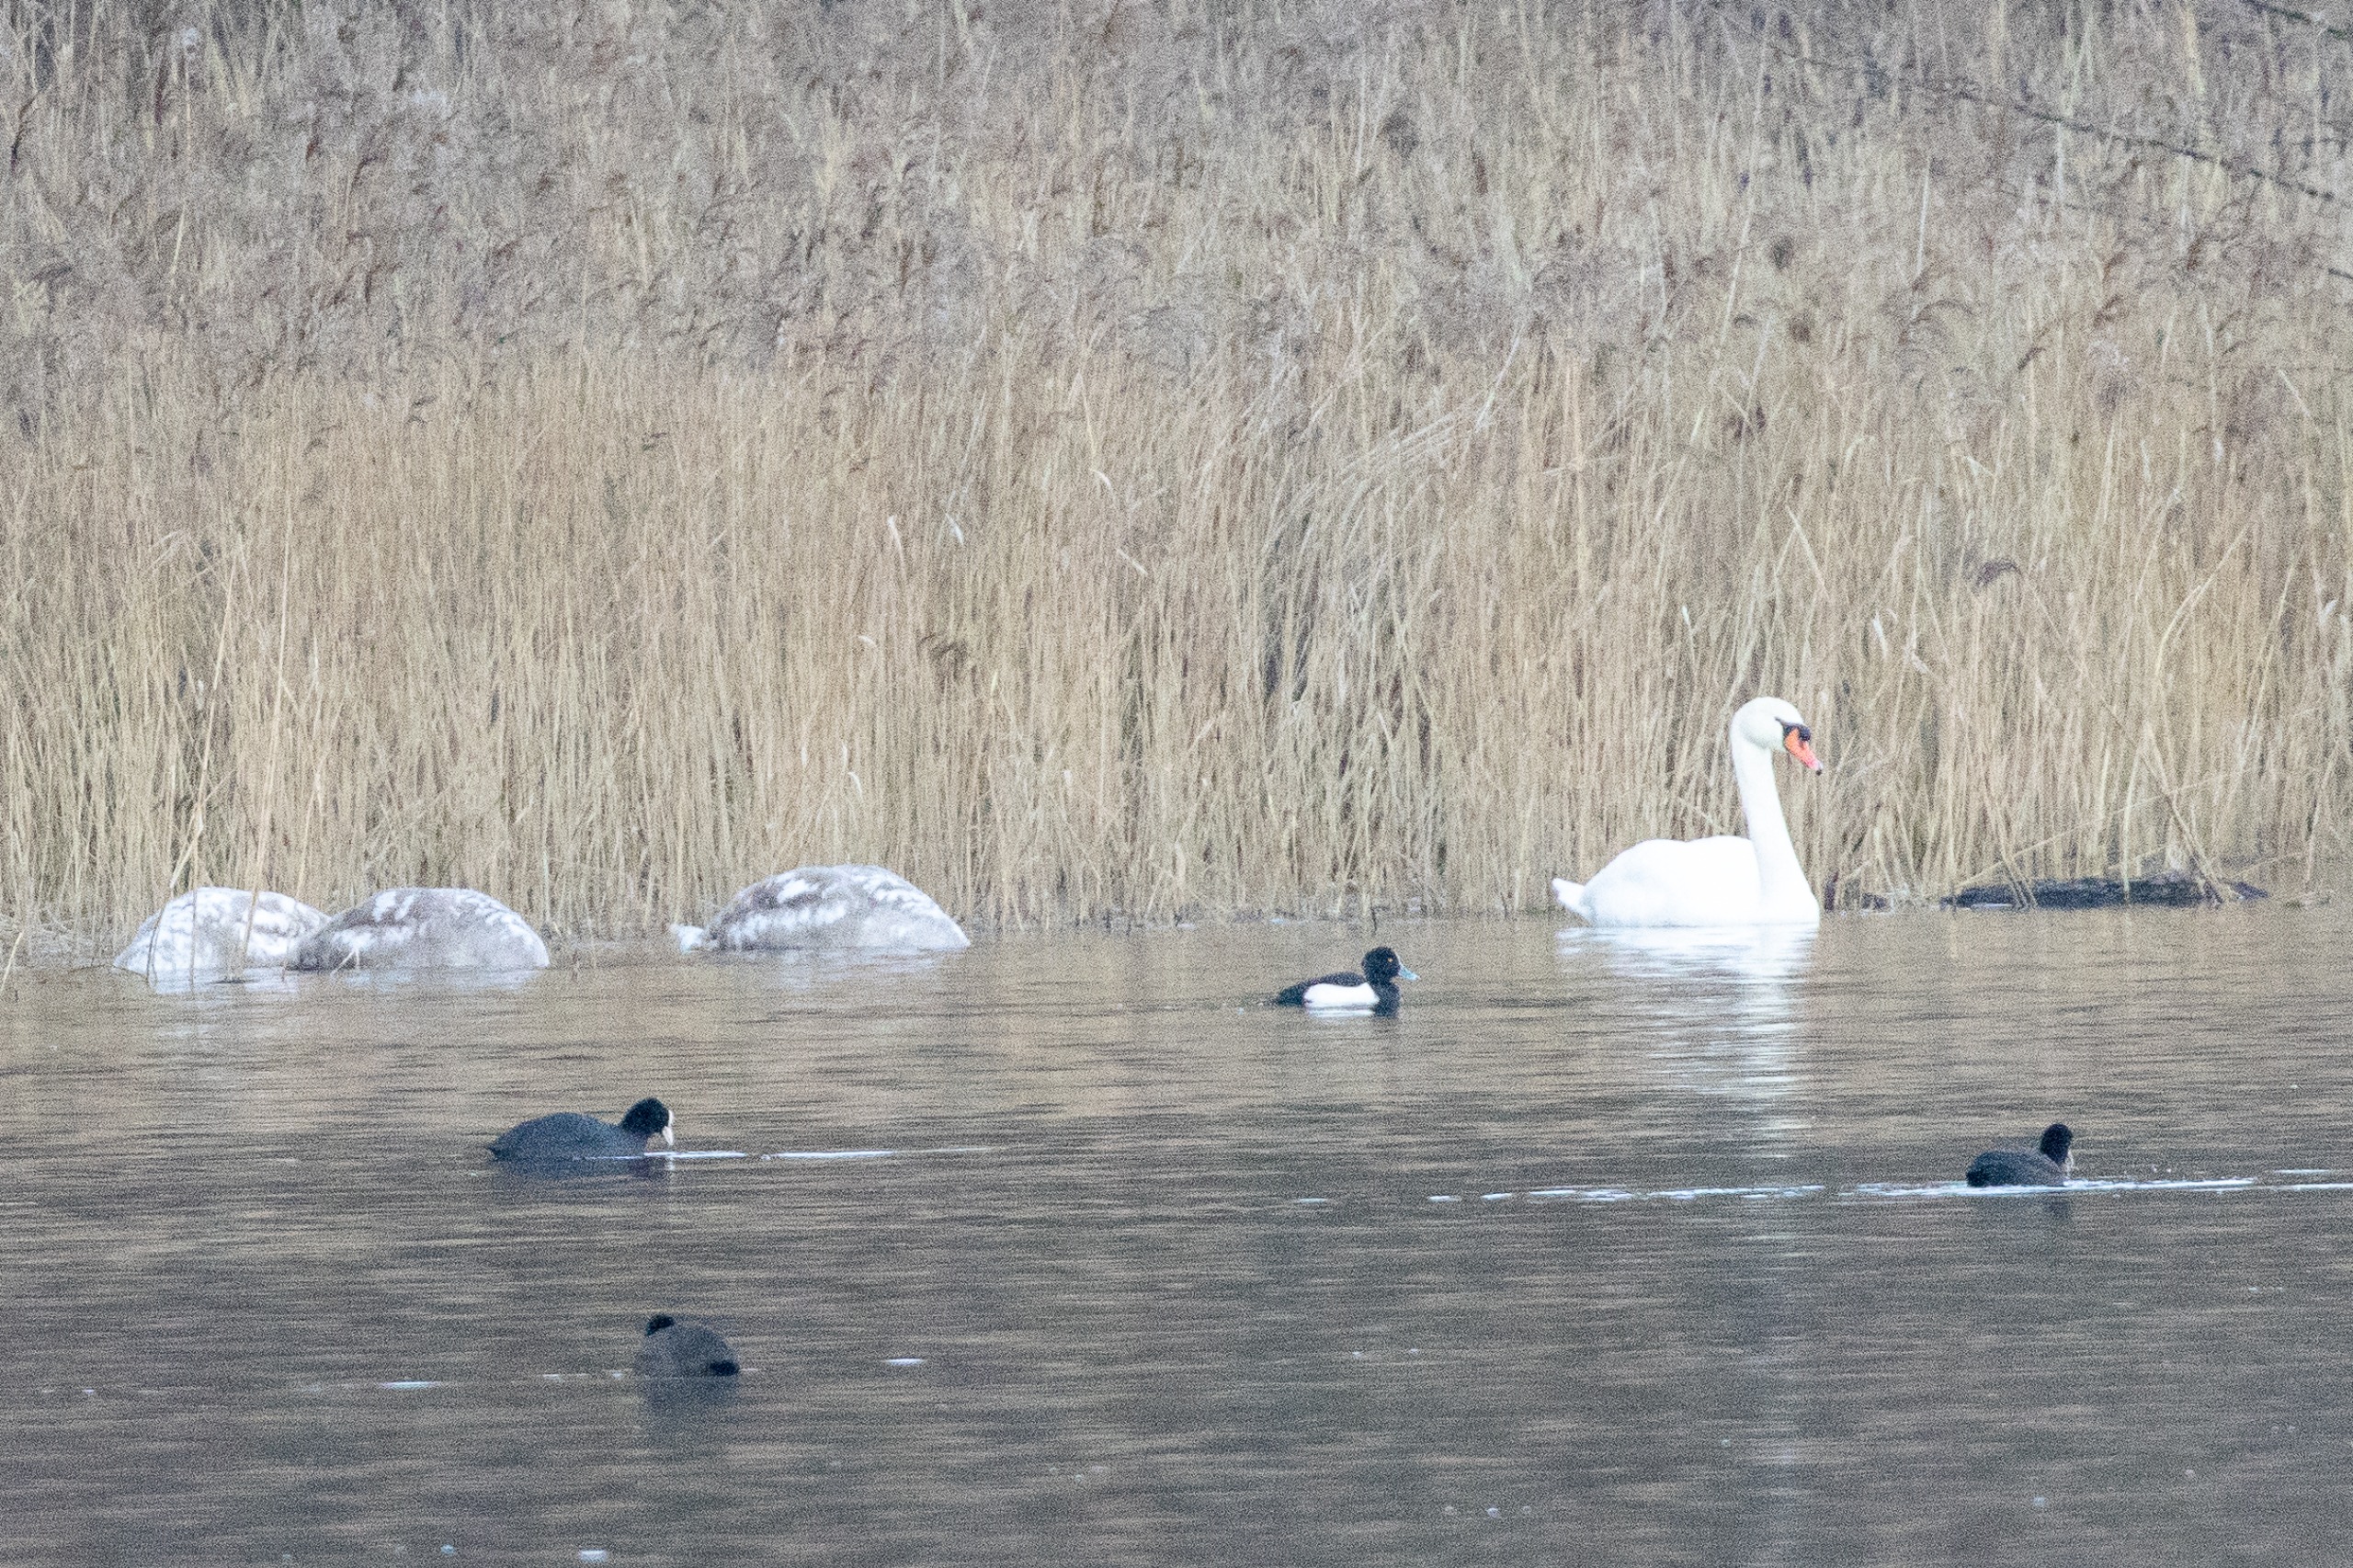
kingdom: Animalia
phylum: Chordata
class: Aves
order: Anseriformes
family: Anatidae
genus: Aythya
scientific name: Aythya fuligula
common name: Troldand
